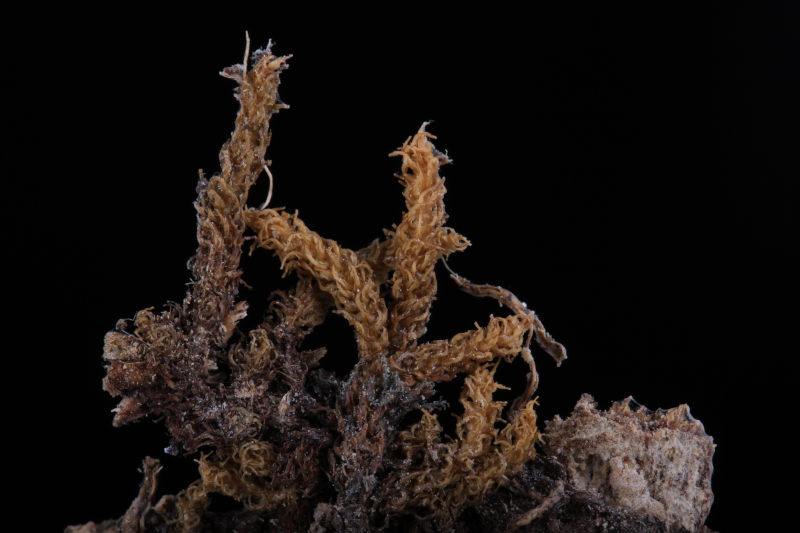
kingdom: Plantae
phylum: Bryophyta
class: Bryopsida
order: Dicranales
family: Calymperaceae
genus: Mitthyridium
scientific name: Mitthyridium constrictum
